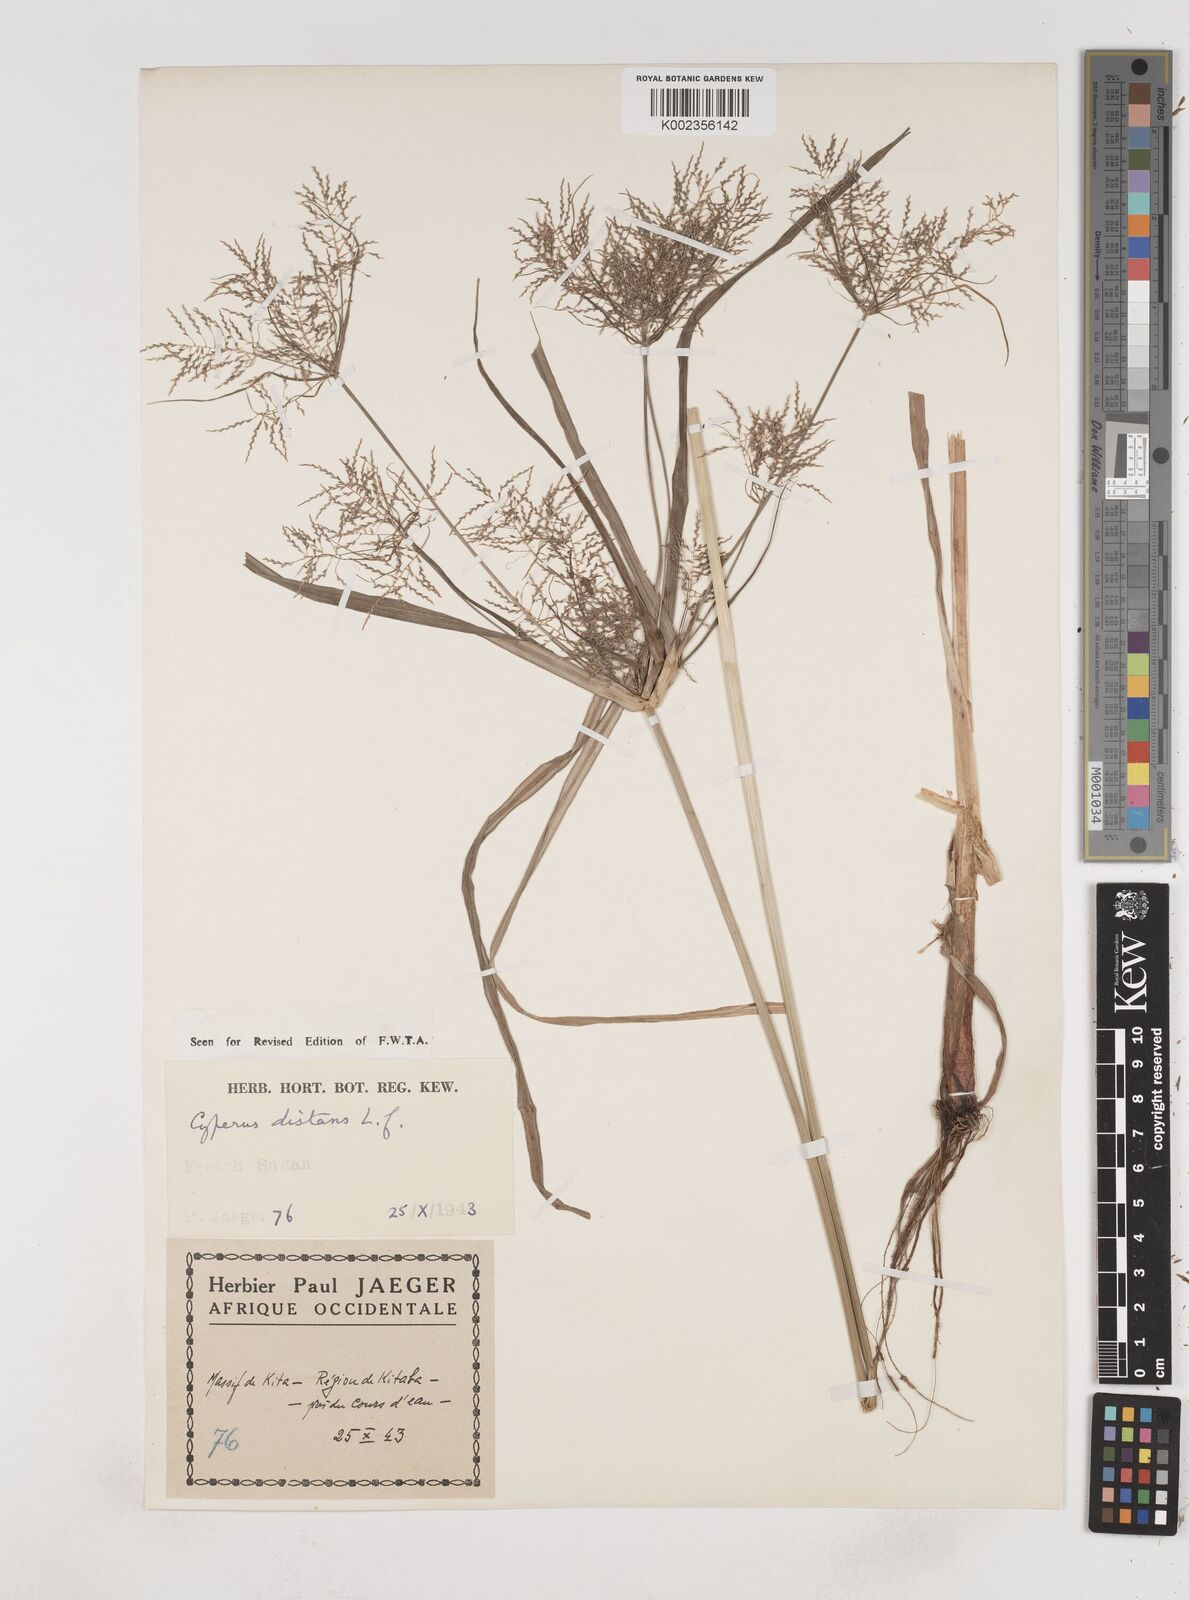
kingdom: Plantae
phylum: Tracheophyta
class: Liliopsida
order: Poales
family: Cyperaceae
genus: Cyperus
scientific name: Cyperus distans
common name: Slender cyperus
